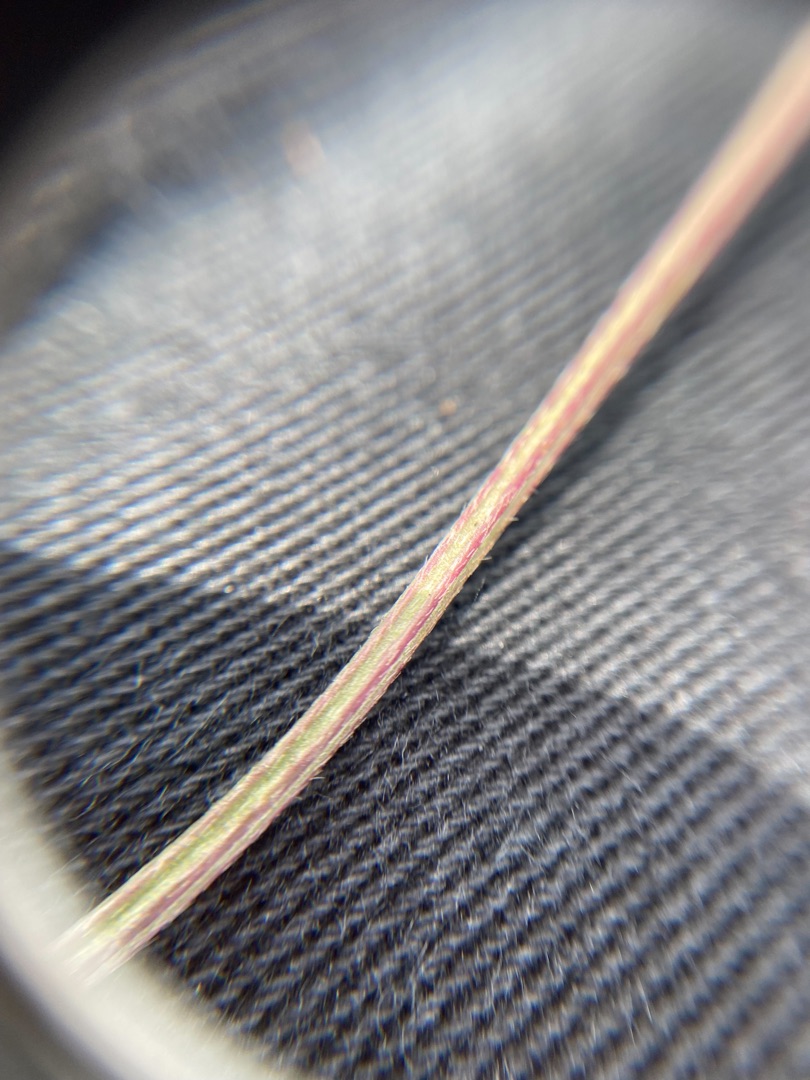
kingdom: Plantae
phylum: Tracheophyta
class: Magnoliopsida
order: Lamiales
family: Plantaginaceae
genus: Plantago
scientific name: Plantago lanceolata
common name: Lancet-vejbred
